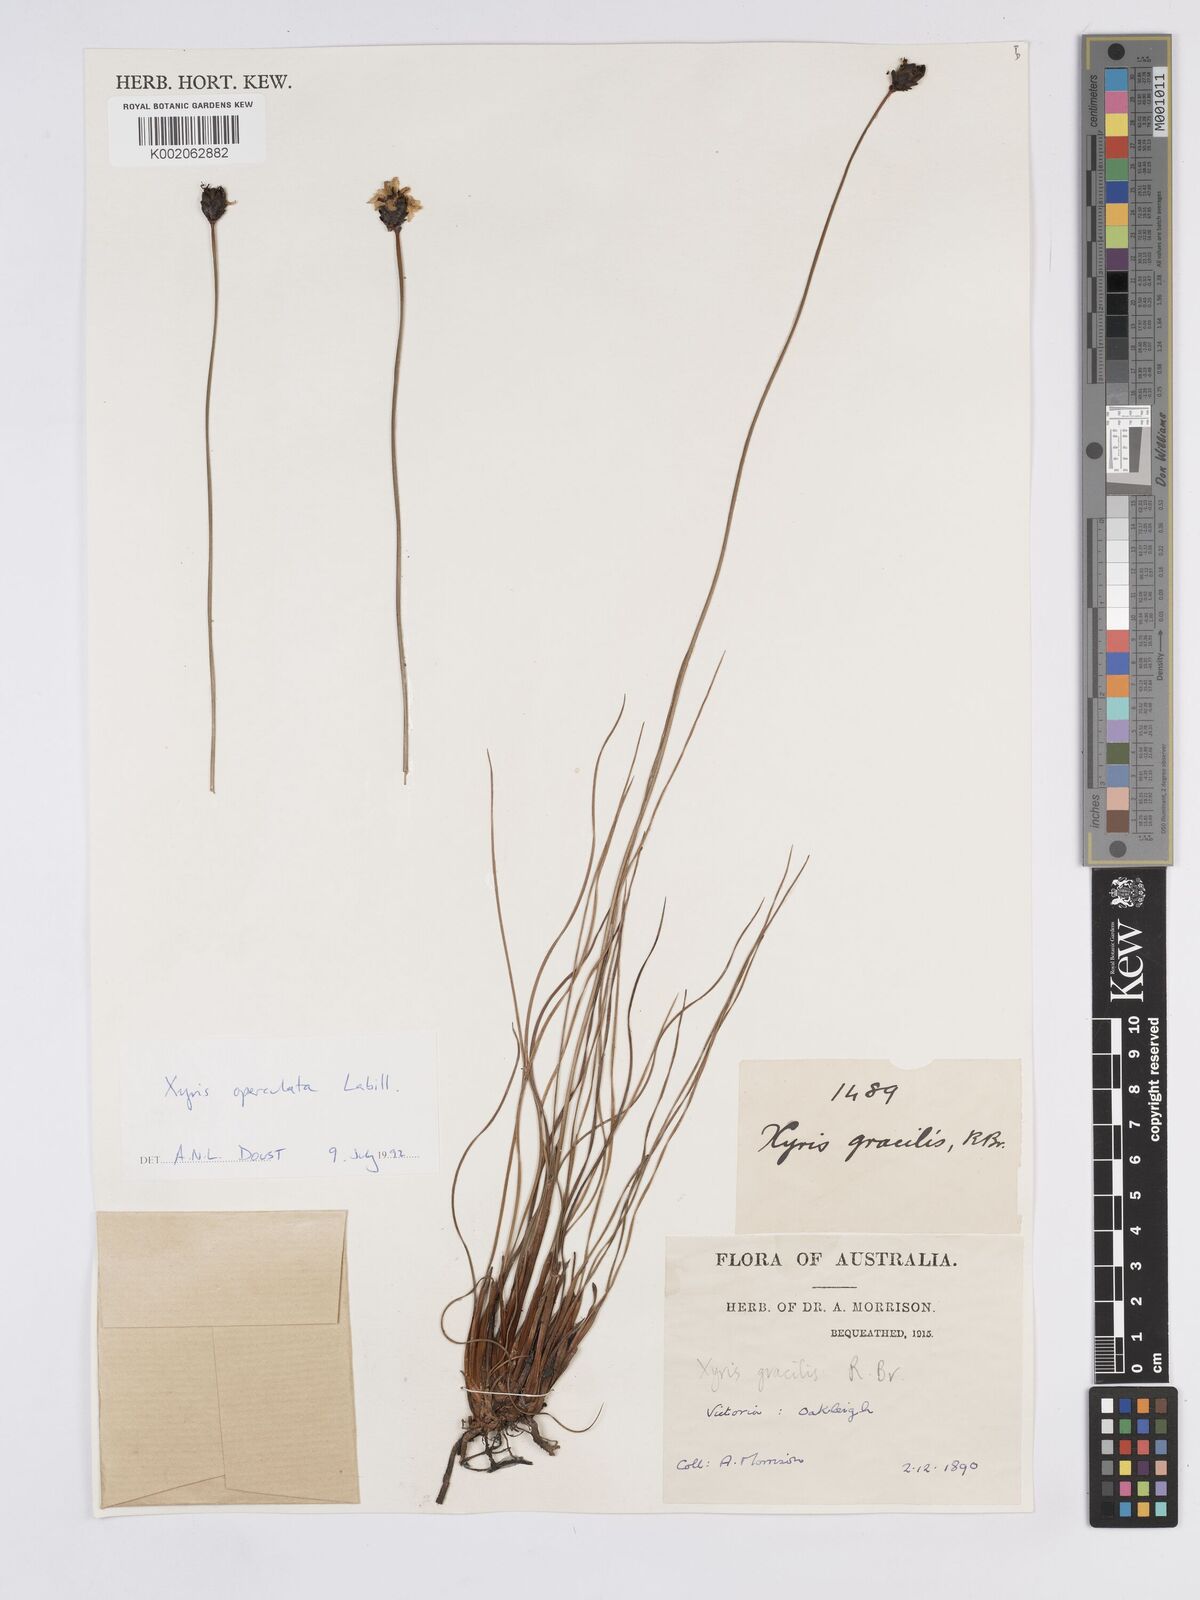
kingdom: Plantae
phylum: Tracheophyta
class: Liliopsida
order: Poales
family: Xyridaceae
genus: Xyris
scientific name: Xyris operculata
